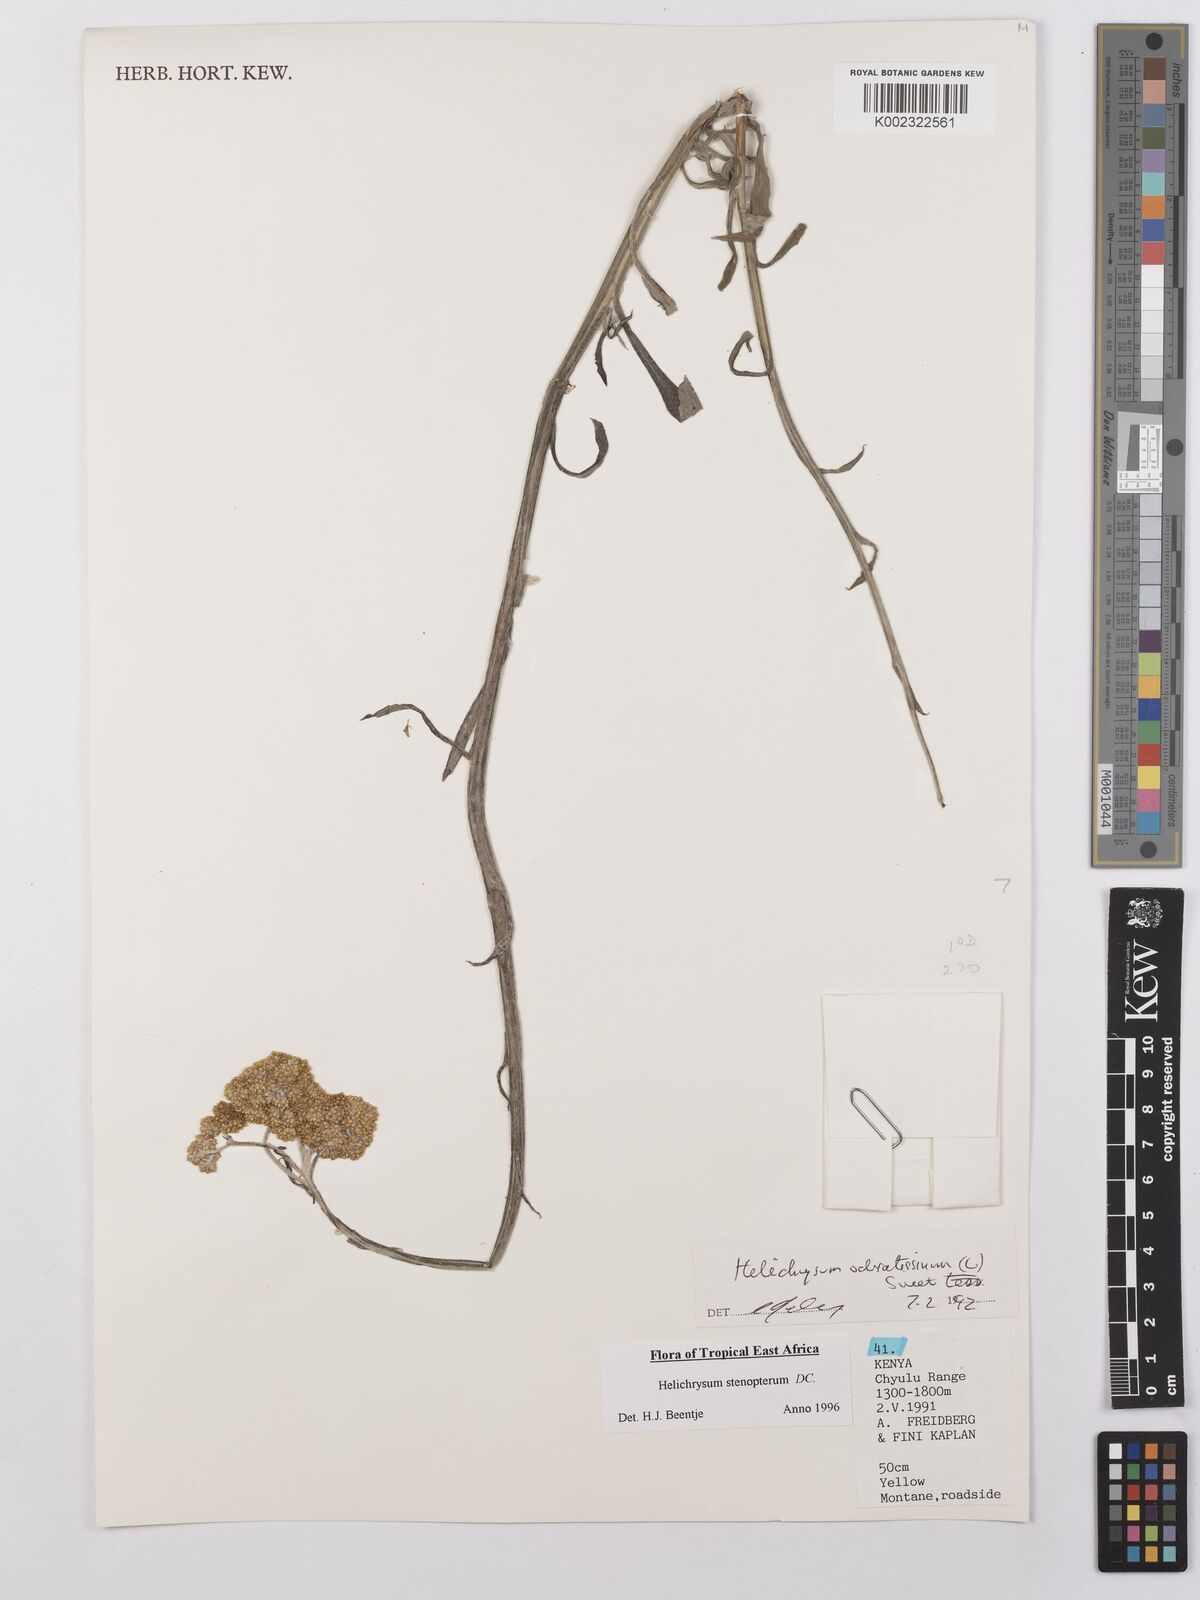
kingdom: Plantae
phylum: Tracheophyta
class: Magnoliopsida
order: Asterales
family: Asteraceae
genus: Helichrysum
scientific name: Helichrysum stenopterum
